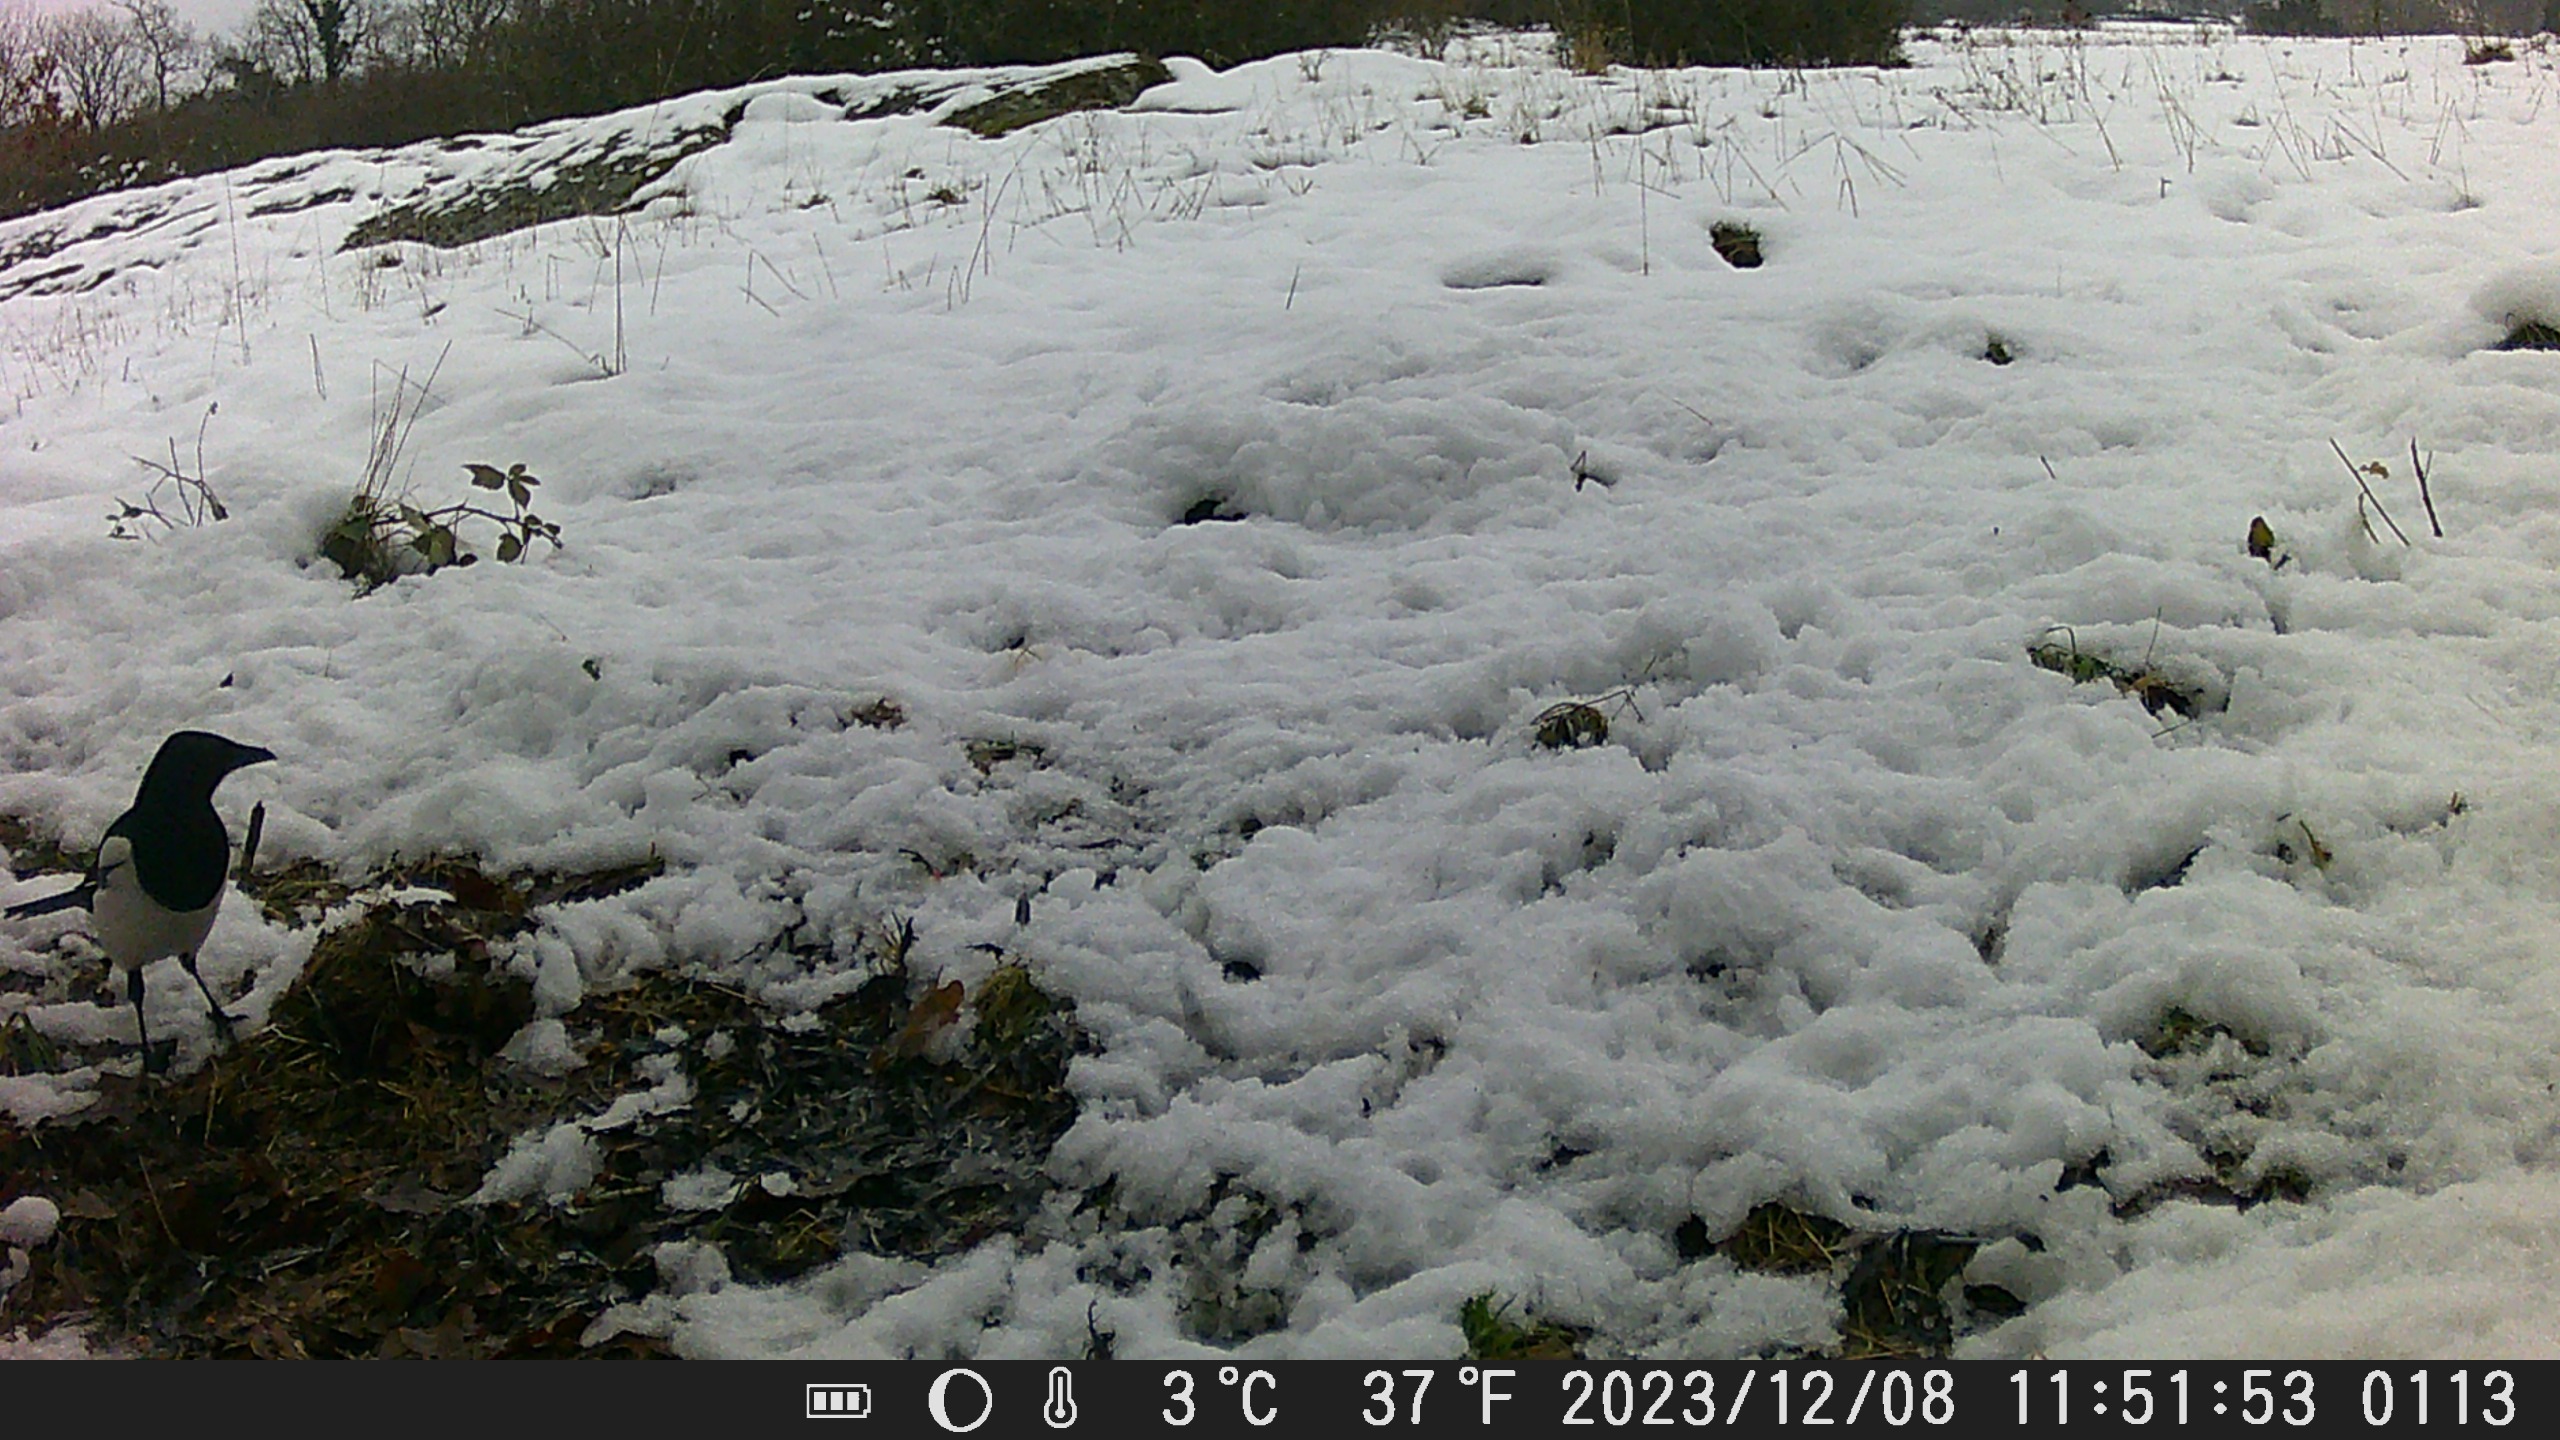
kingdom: Animalia
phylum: Chordata
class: Aves
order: Passeriformes
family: Corvidae
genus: Pica
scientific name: Pica pica
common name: Husskade
